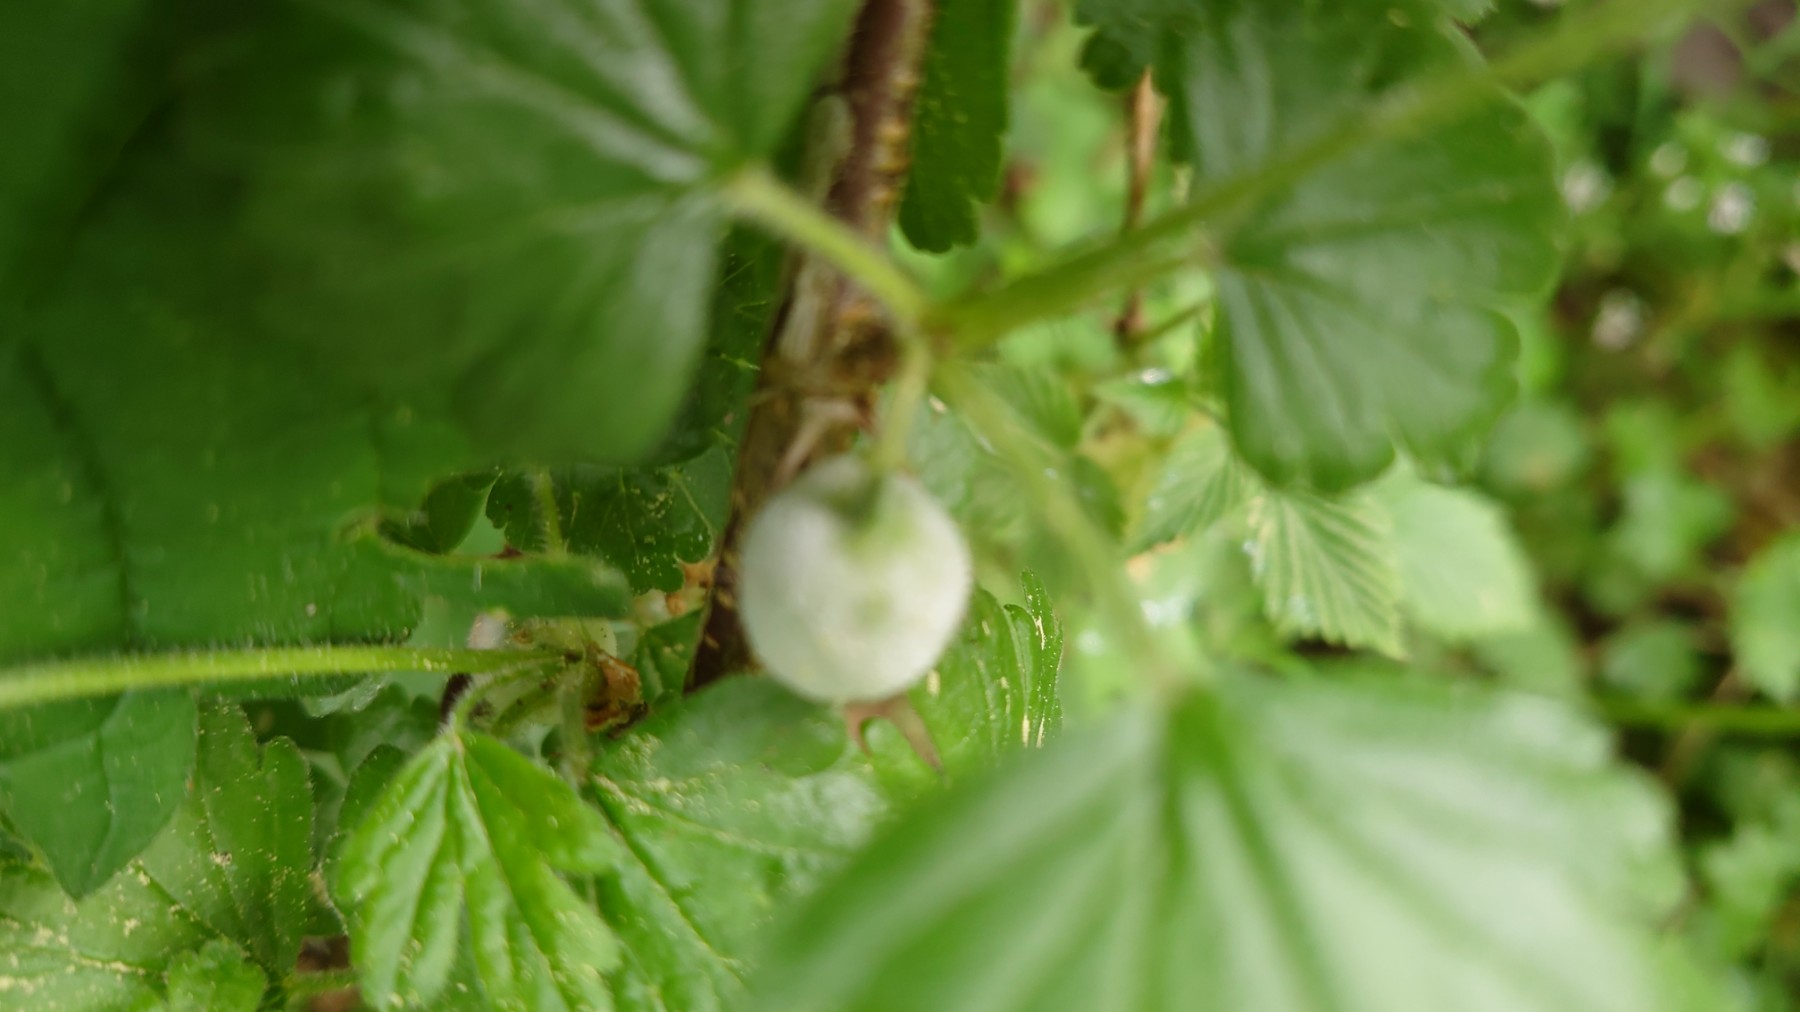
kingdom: Fungi
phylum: Ascomycota
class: Leotiomycetes
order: Helotiales
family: Erysiphaceae
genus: Podosphaera
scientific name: Podosphaera mors-uvae
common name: American gooseberry mildew
